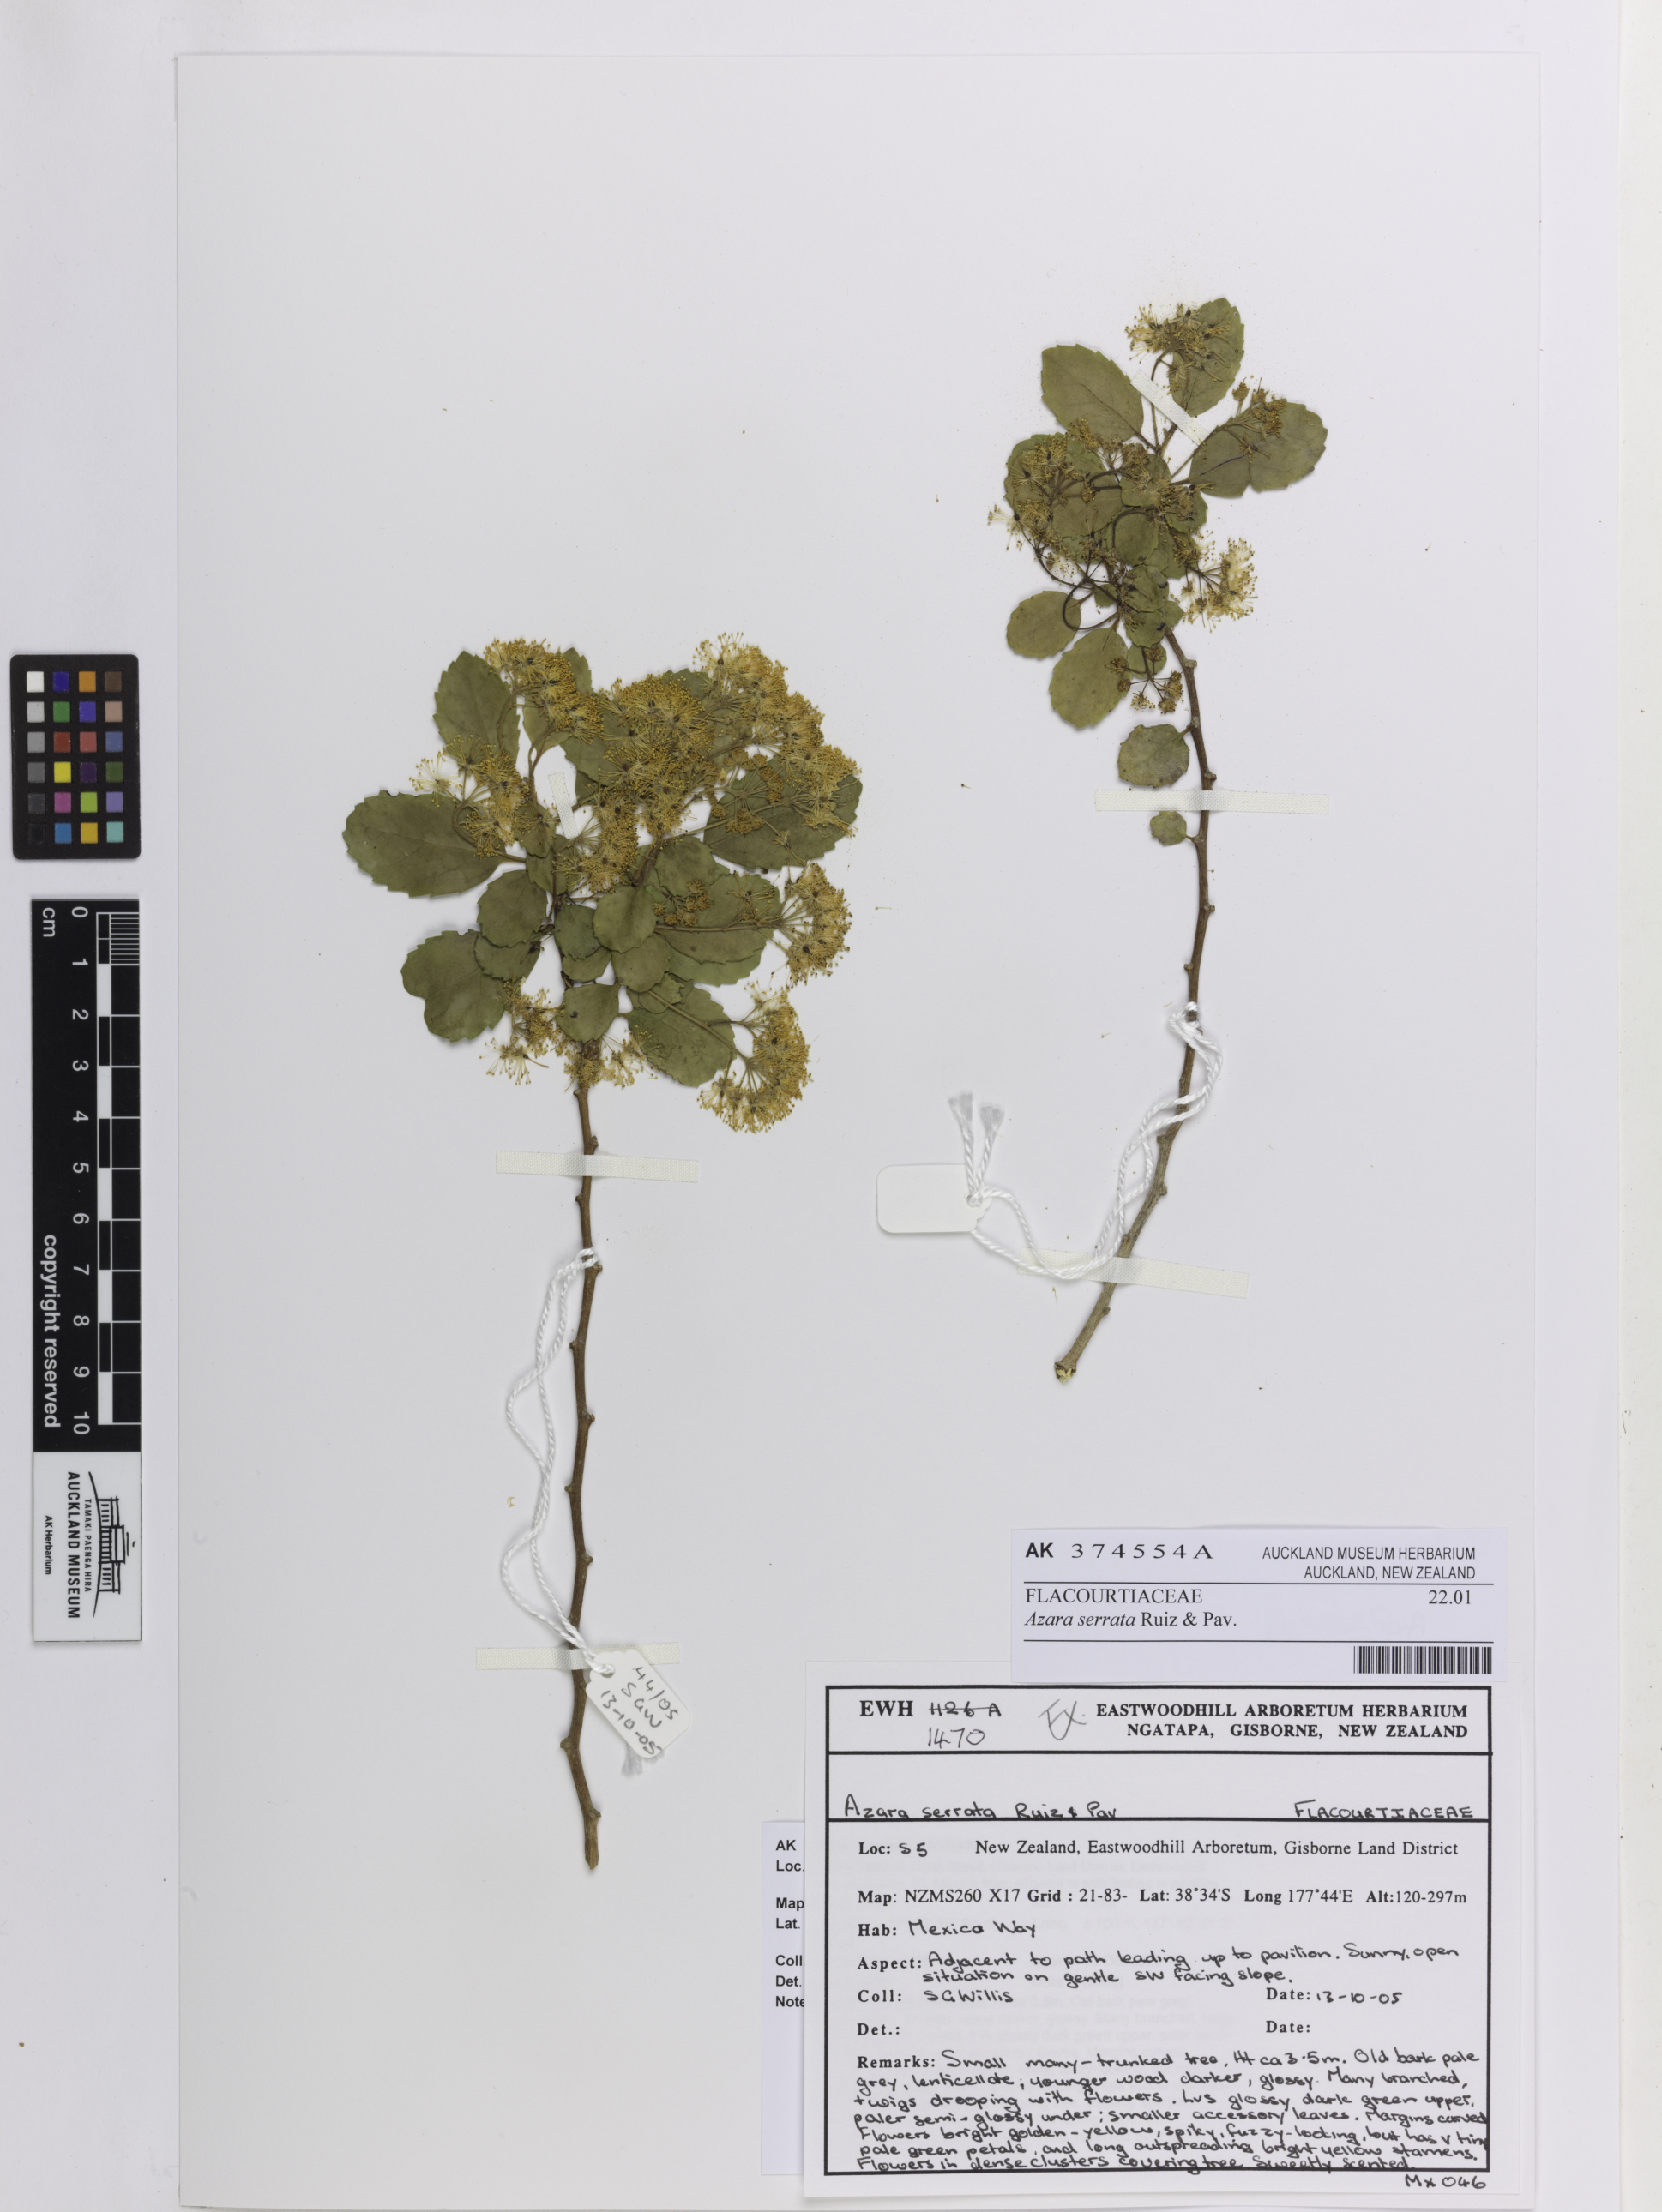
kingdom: Plantae
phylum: Tracheophyta
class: Magnoliopsida
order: Malpighiales
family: Salicaceae
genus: Azara
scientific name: Azara serrata
